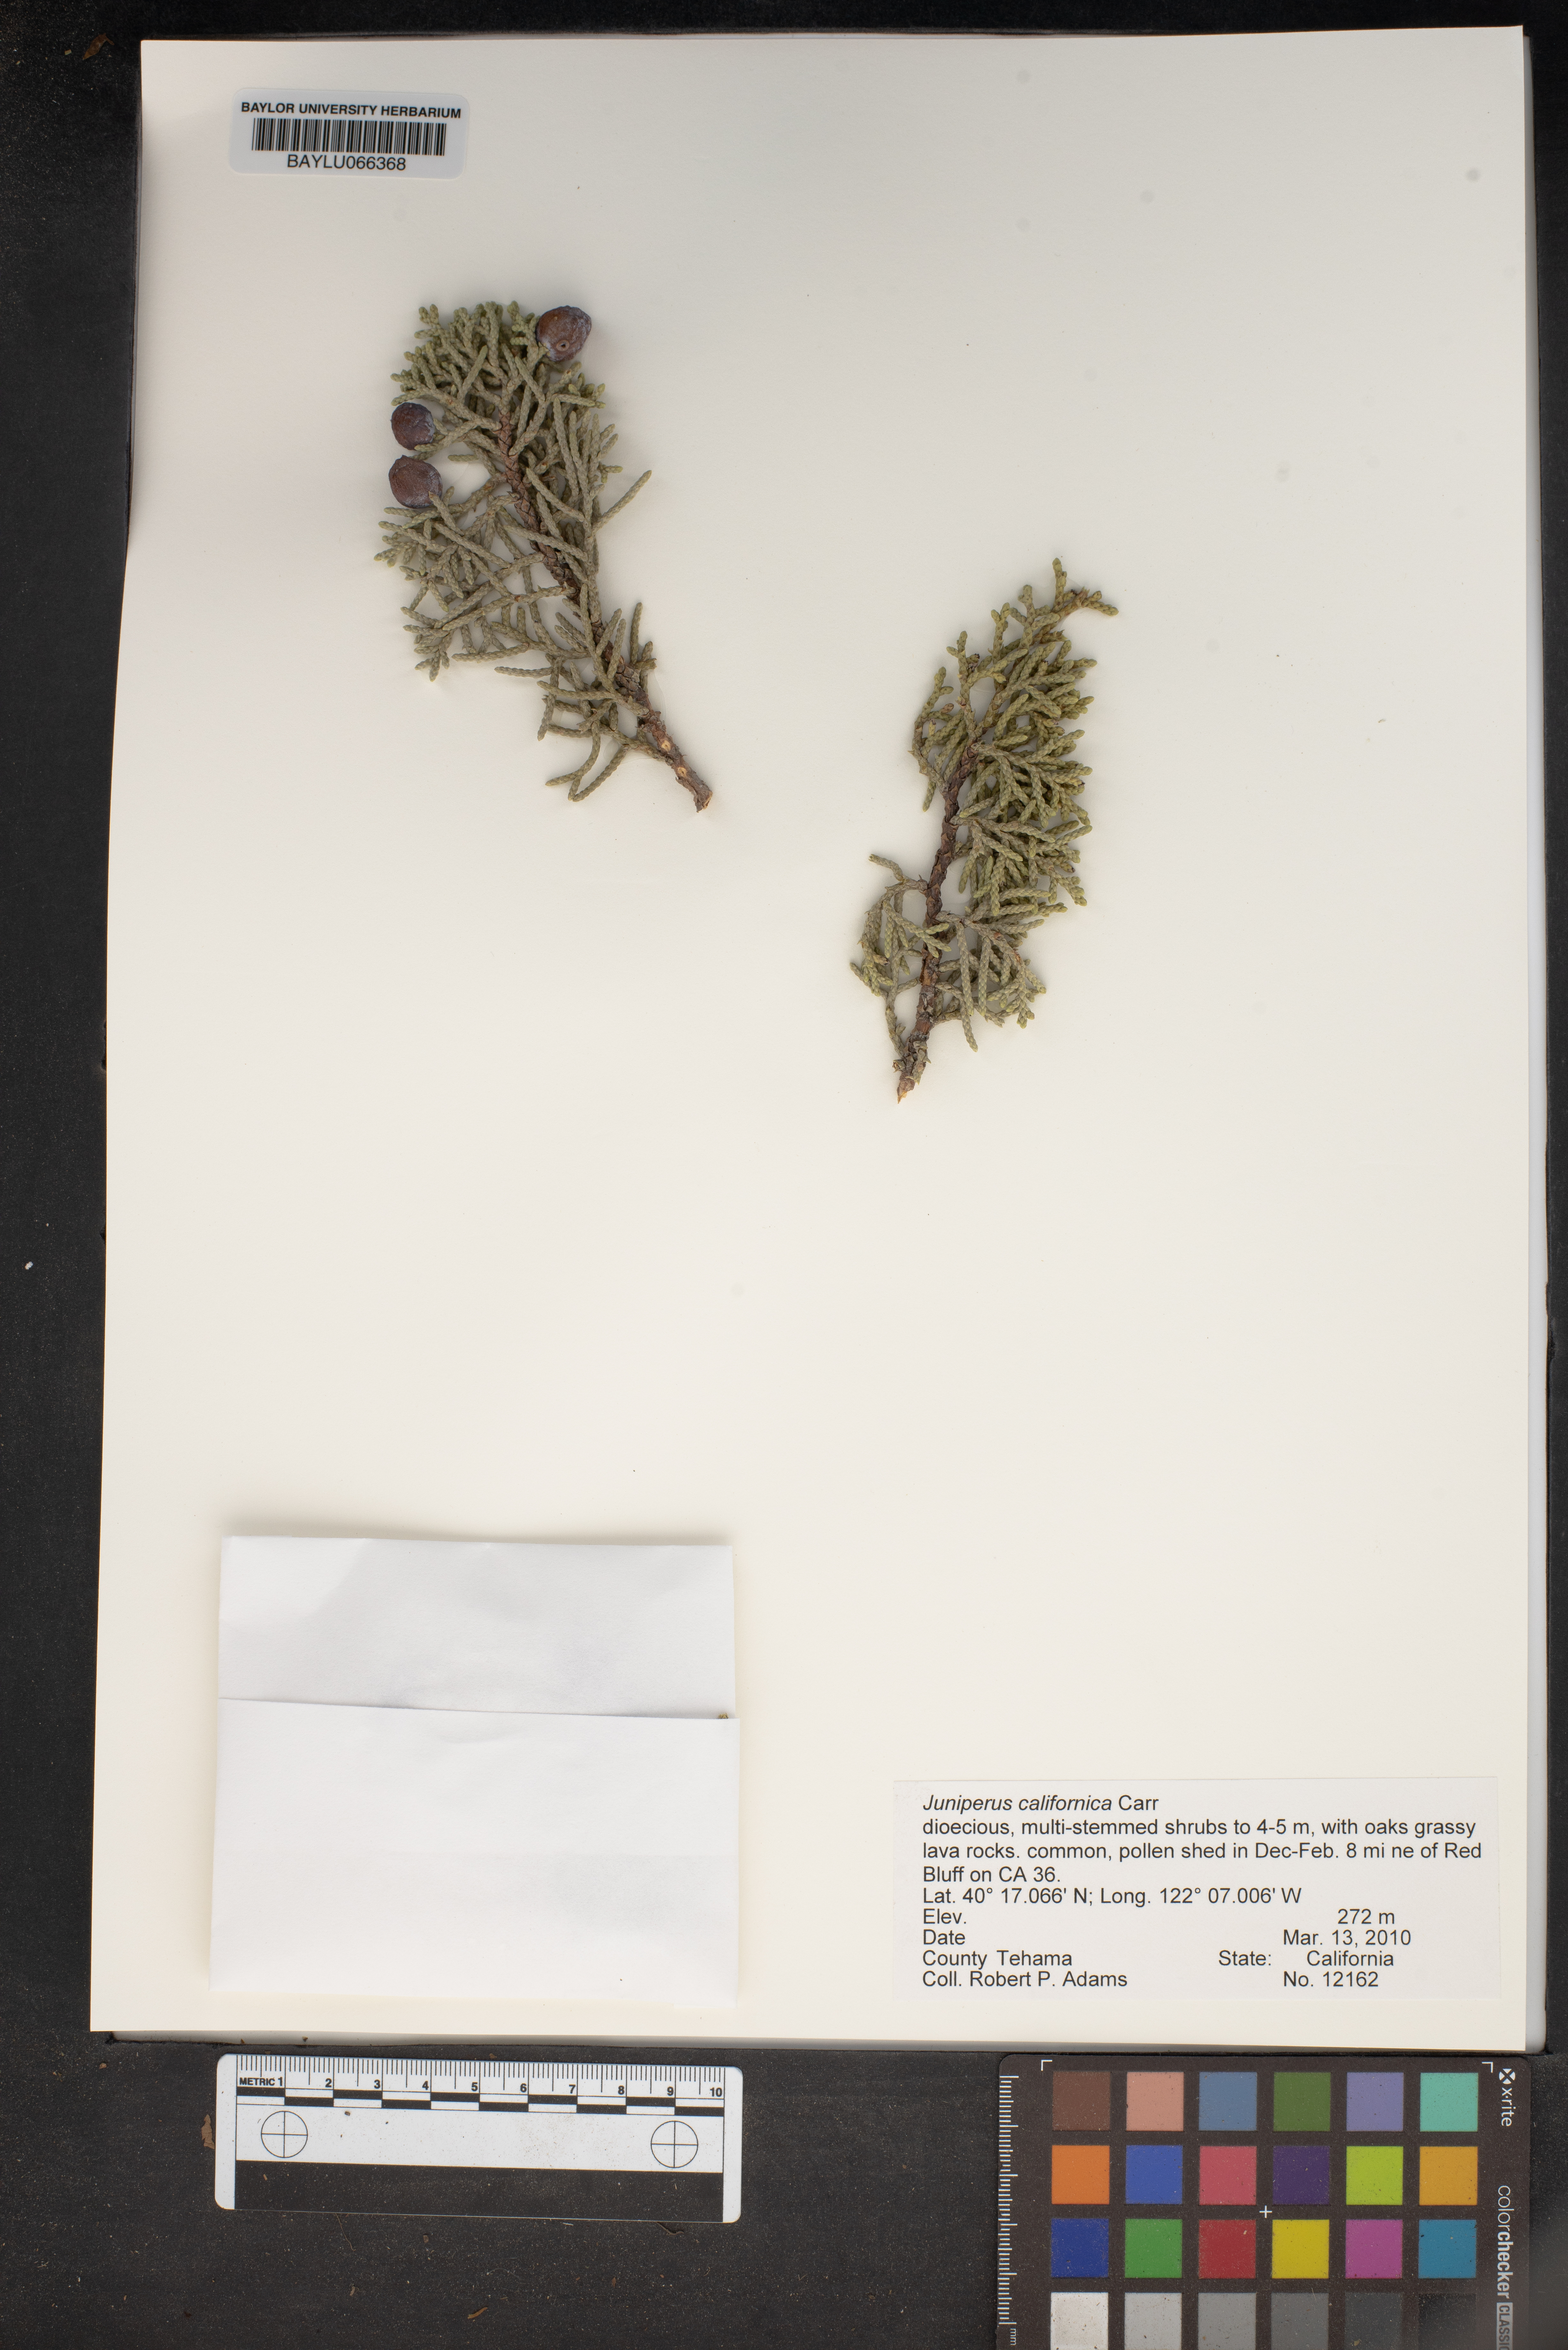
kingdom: Plantae
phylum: Tracheophyta
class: Pinopsida
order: Pinales
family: Cupressaceae
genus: Juniperus
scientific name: Juniperus californica
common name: California juniper
